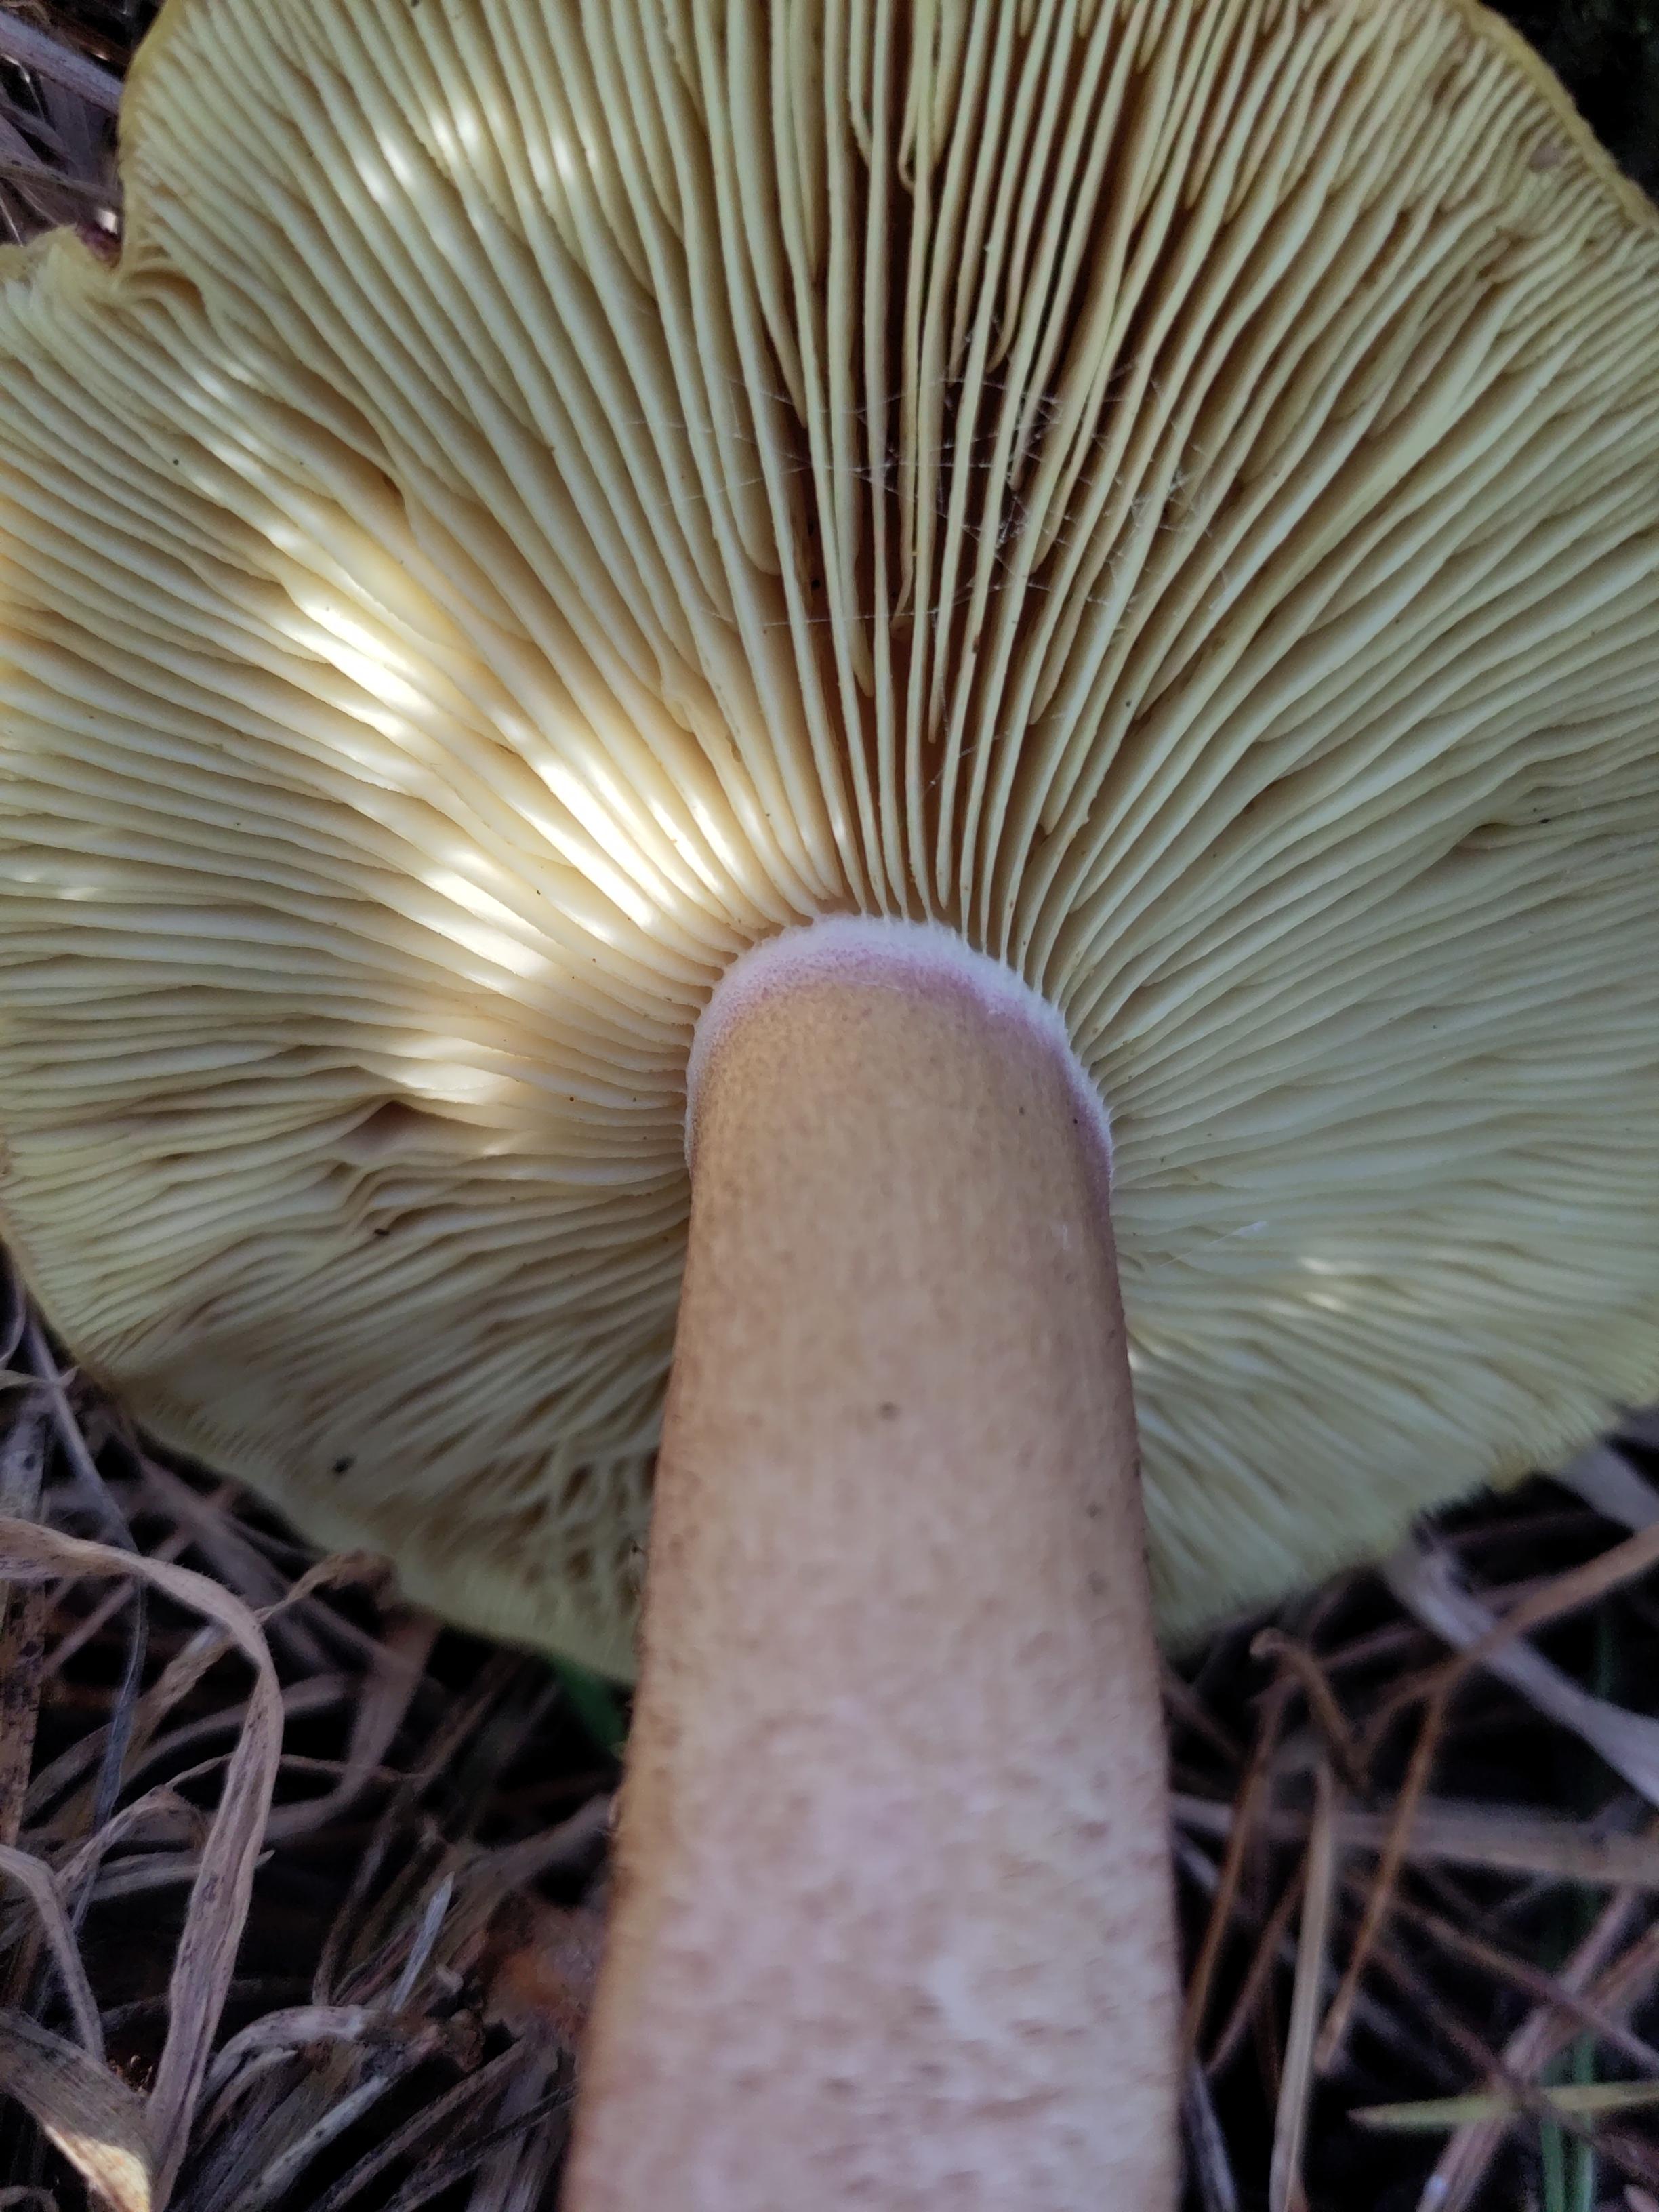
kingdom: Fungi
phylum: Basidiomycota
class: Agaricomycetes
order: Agaricales
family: Tricholomataceae
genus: Tricholomopsis
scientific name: Tricholomopsis rutilans
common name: purpur-væbnerhat
